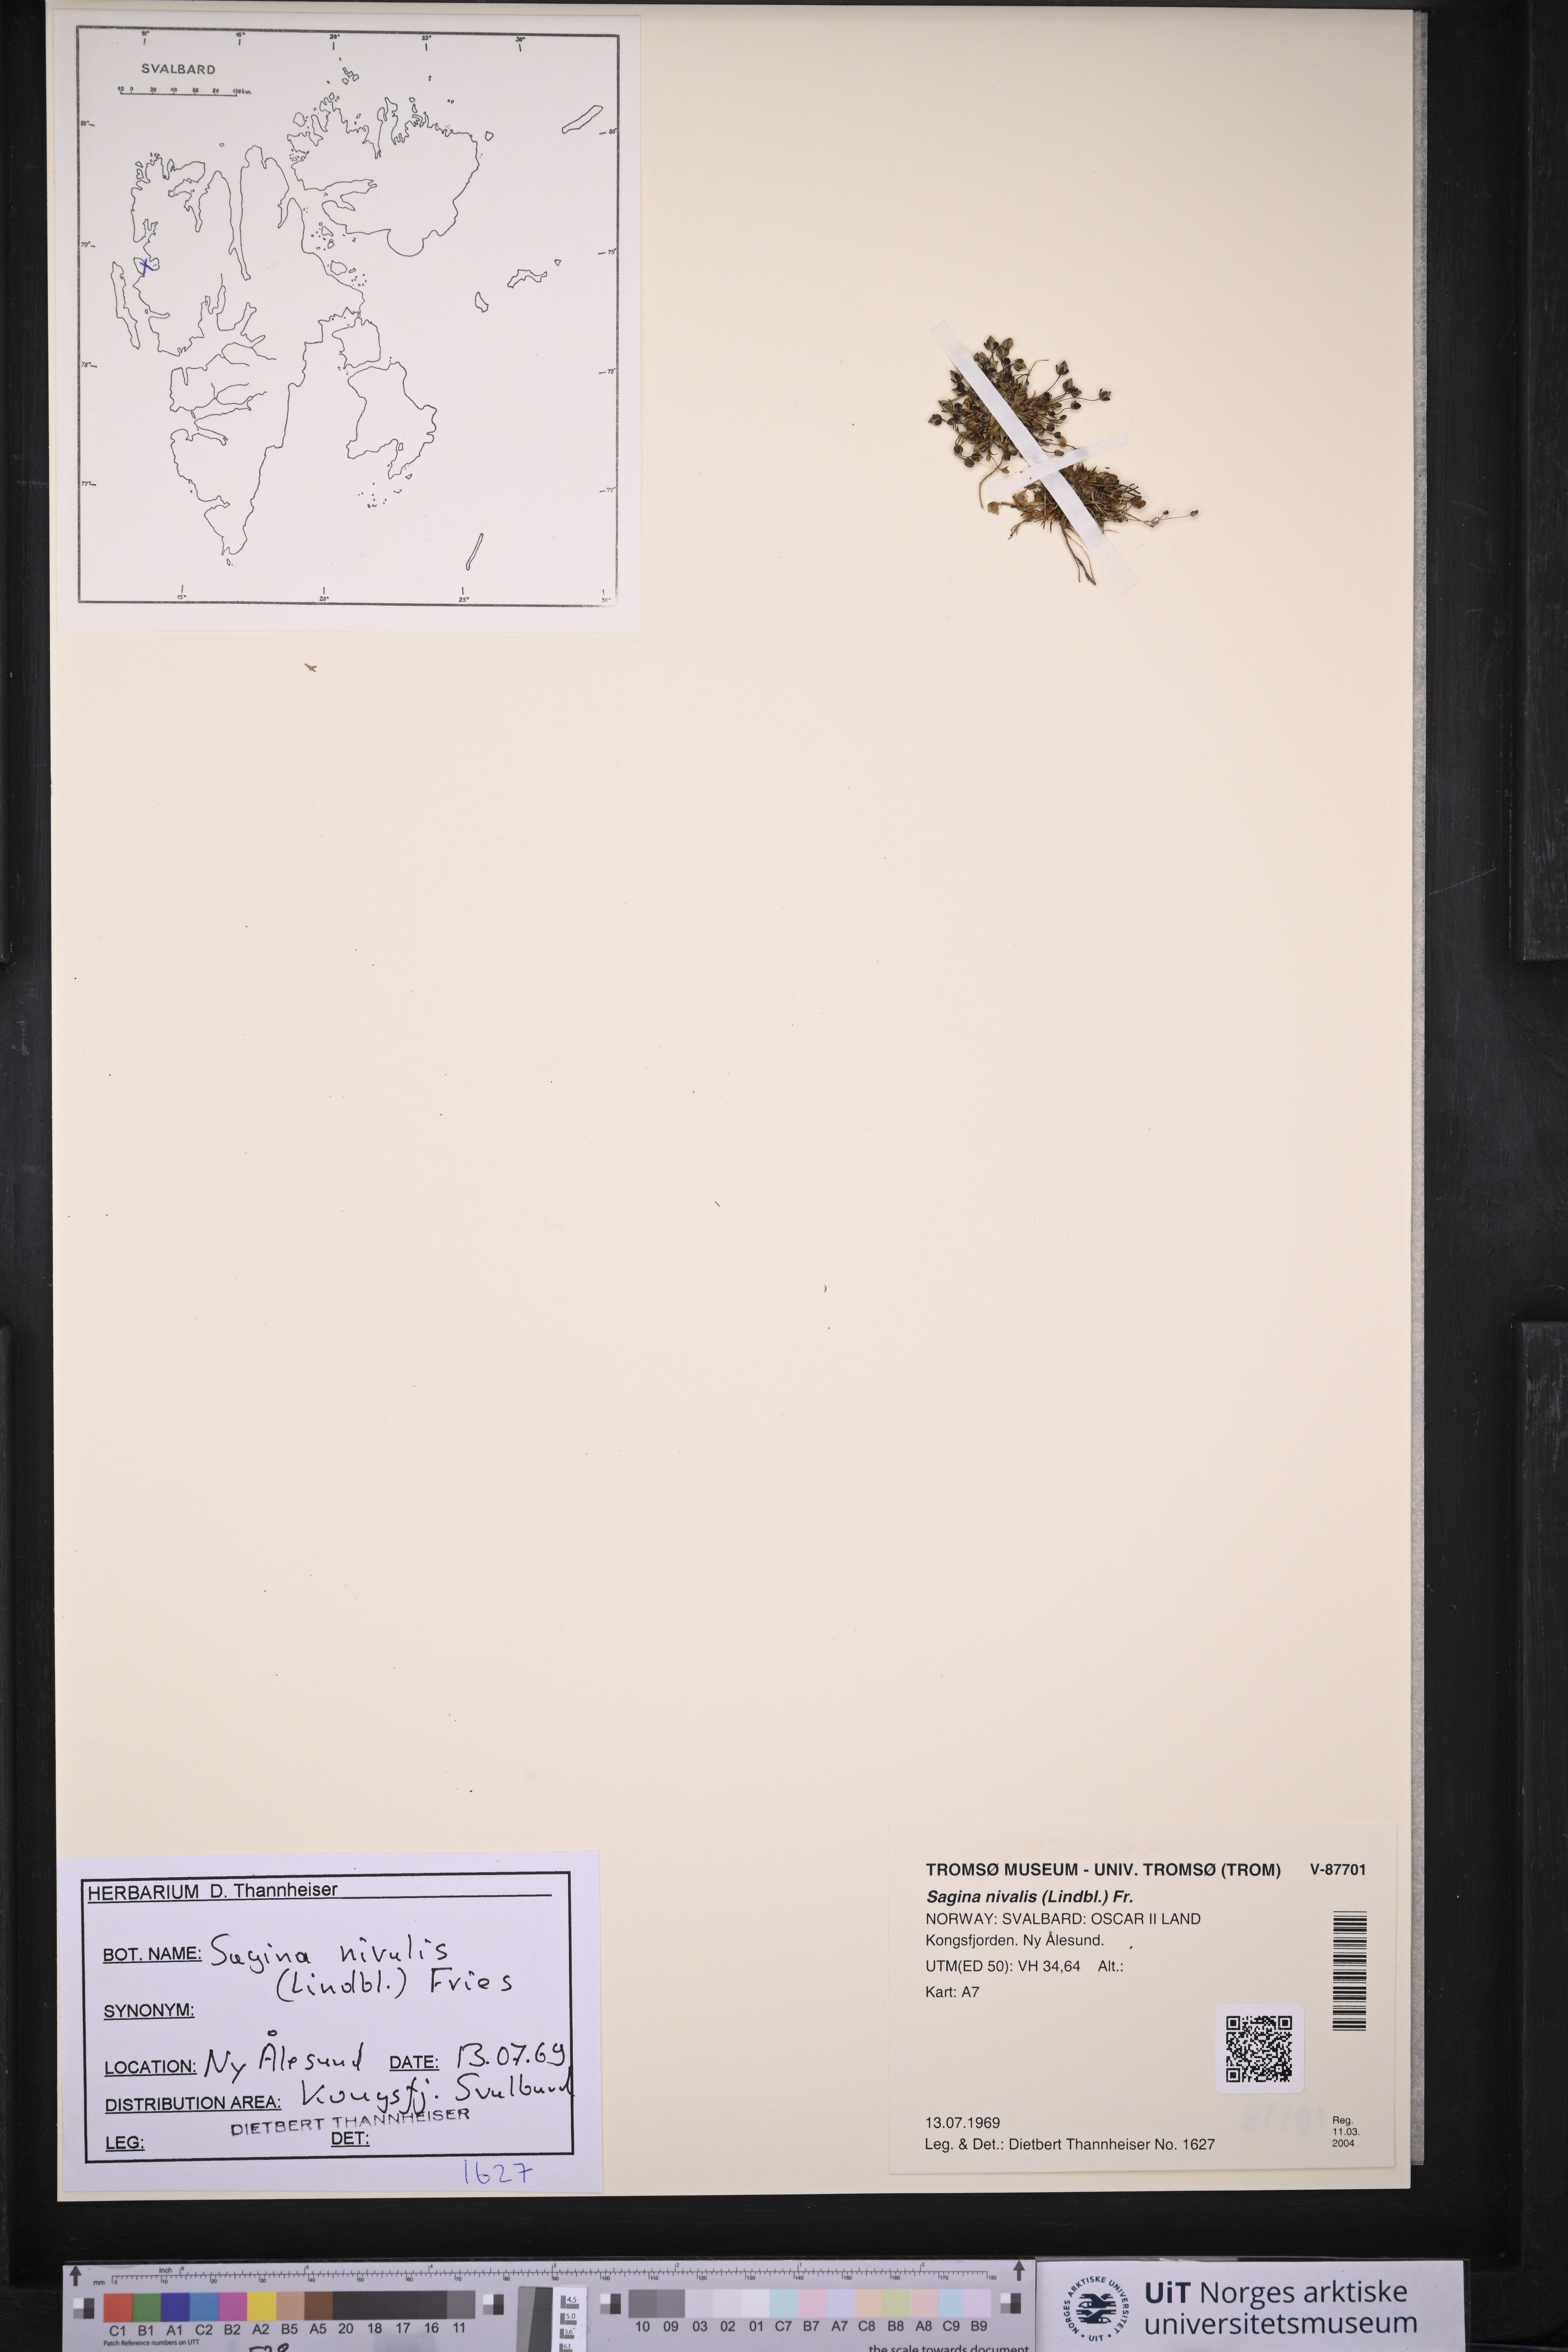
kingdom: Plantae
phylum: Tracheophyta
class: Magnoliopsida
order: Caryophyllales
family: Caryophyllaceae
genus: Sagina
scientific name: Sagina nivalis
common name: Snow pearlwort
